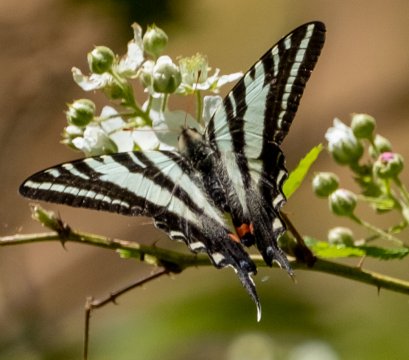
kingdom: Animalia
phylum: Arthropoda
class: Insecta
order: Lepidoptera
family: Papilionidae
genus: Protographium
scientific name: Protographium marcellus
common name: Zebra Swallowtail
